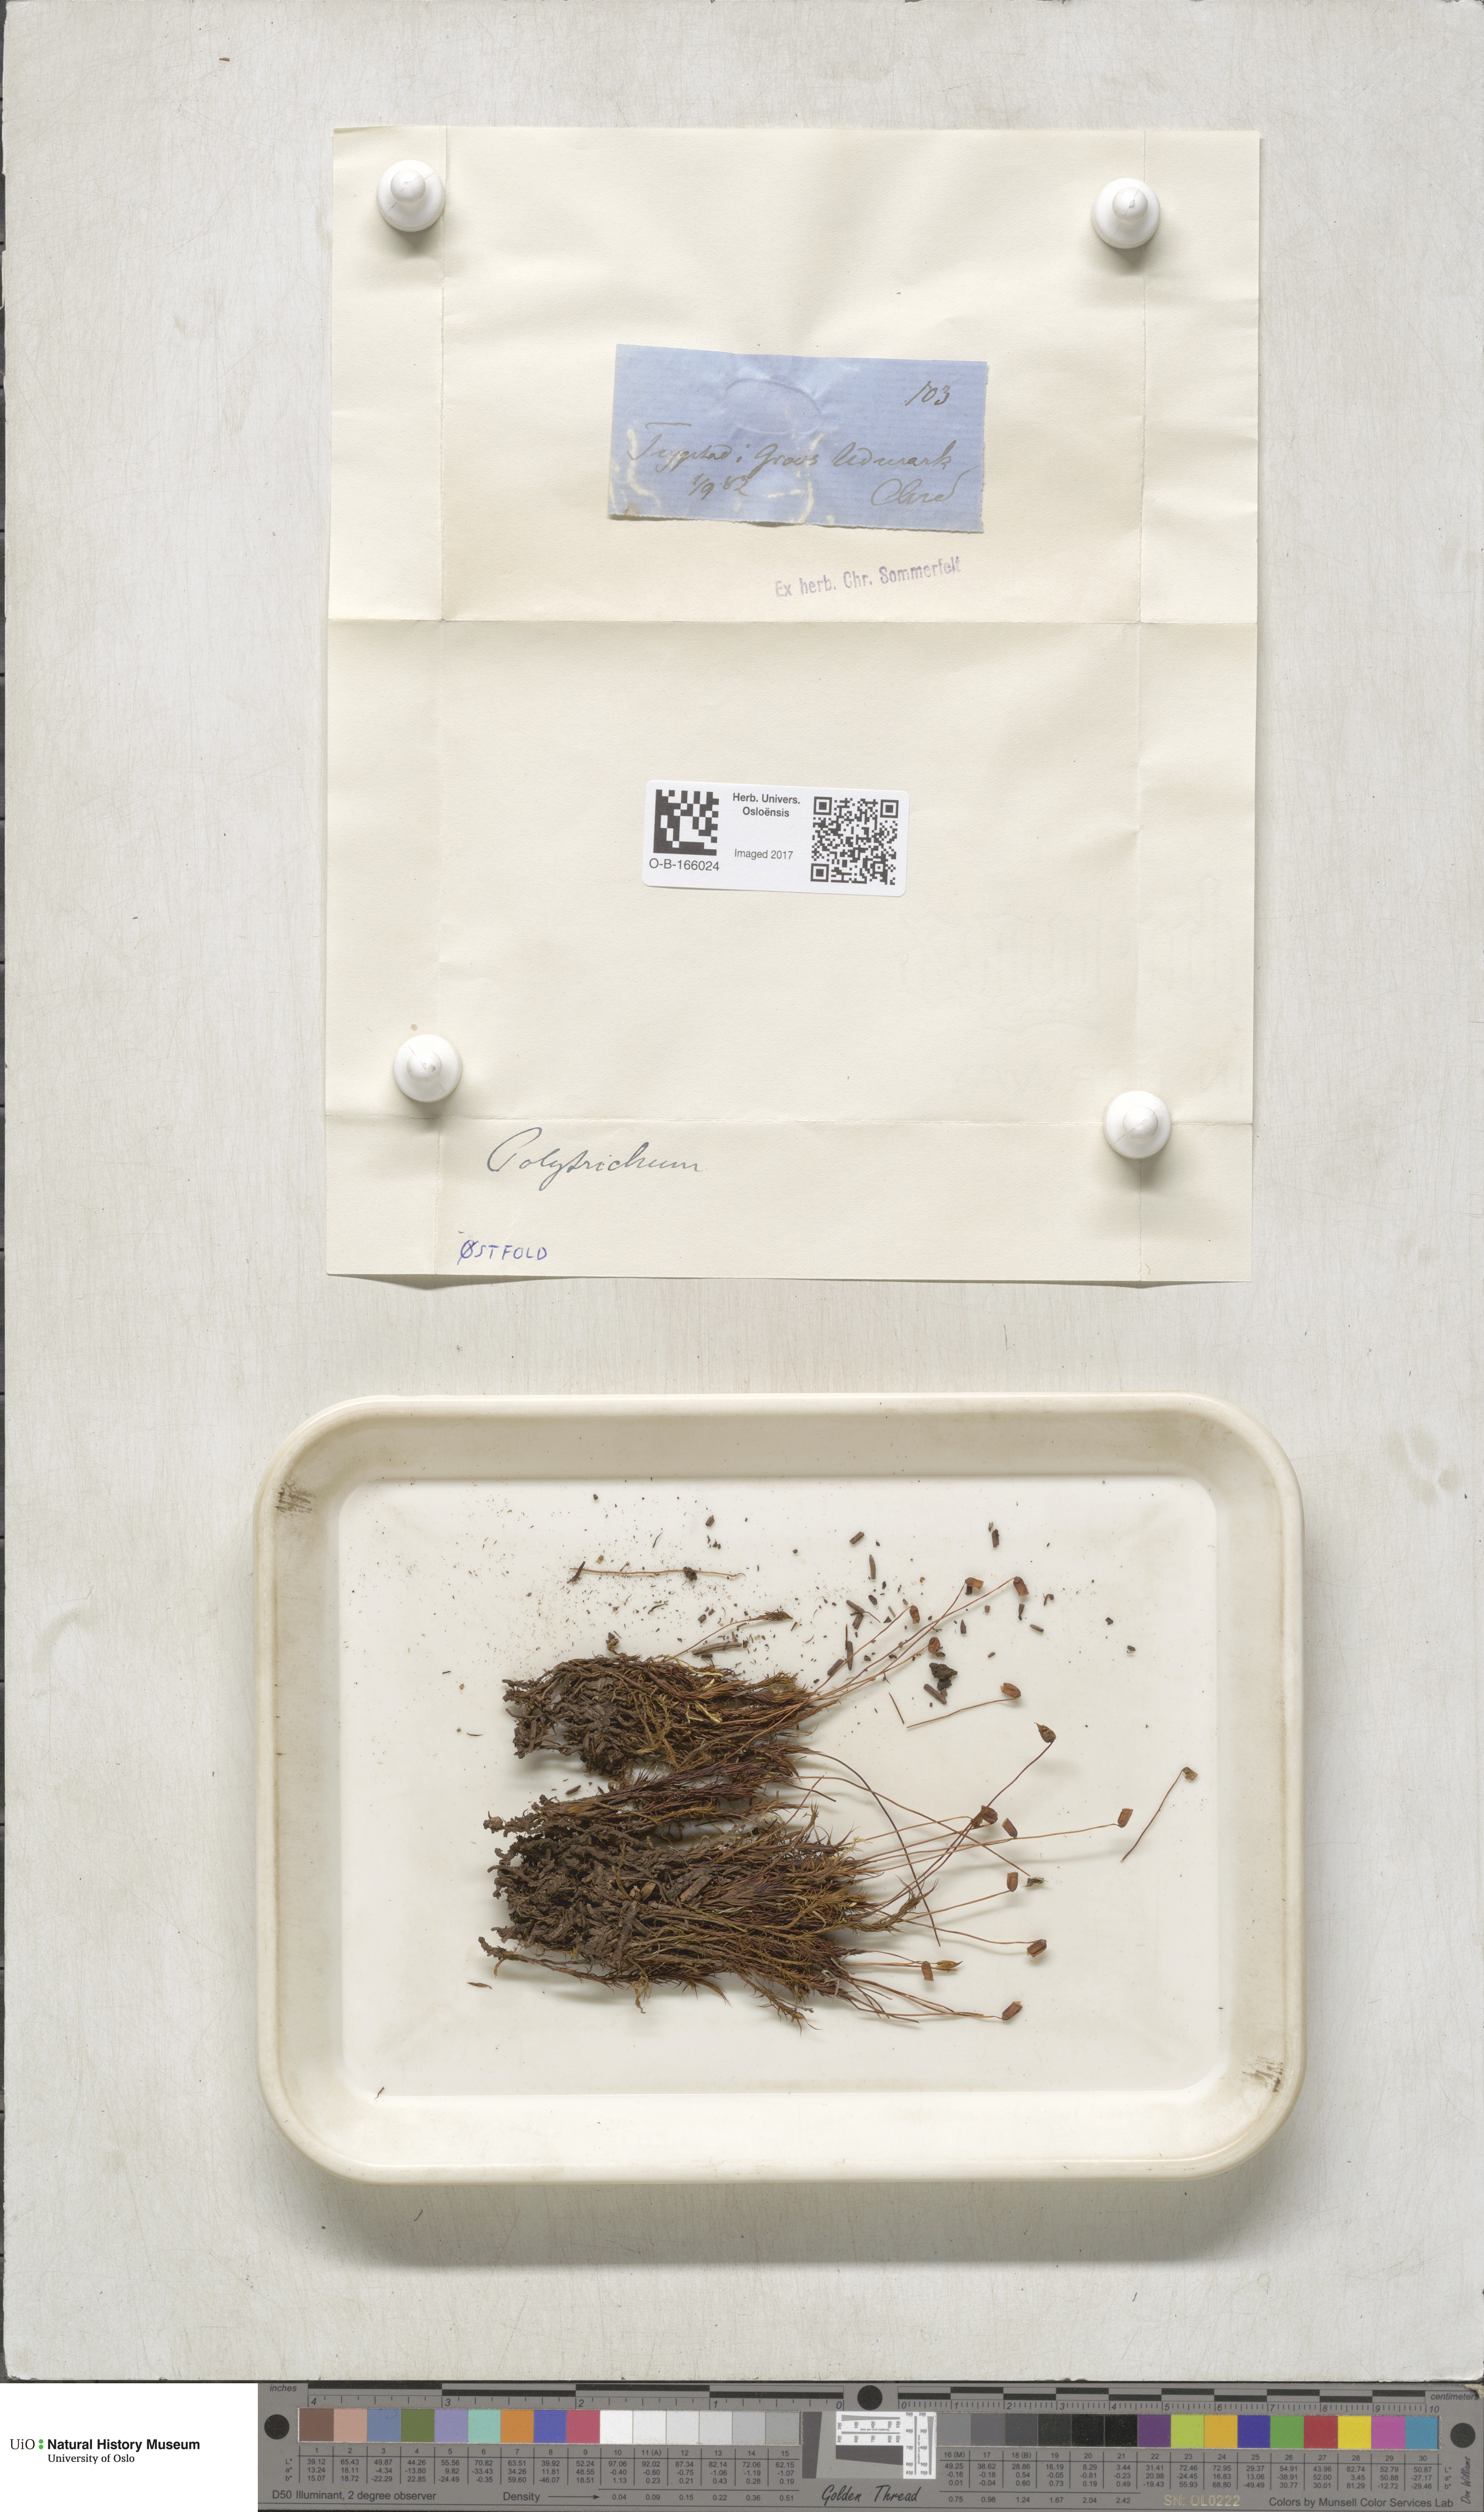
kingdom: Plantae
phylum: Bryophyta
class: Polytrichopsida
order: Polytrichales
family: Polytrichaceae
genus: Polytrichum
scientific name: Polytrichum
